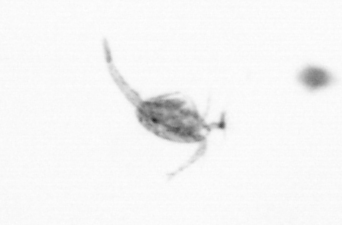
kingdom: Animalia
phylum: Arthropoda
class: Copepoda
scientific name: Copepoda
